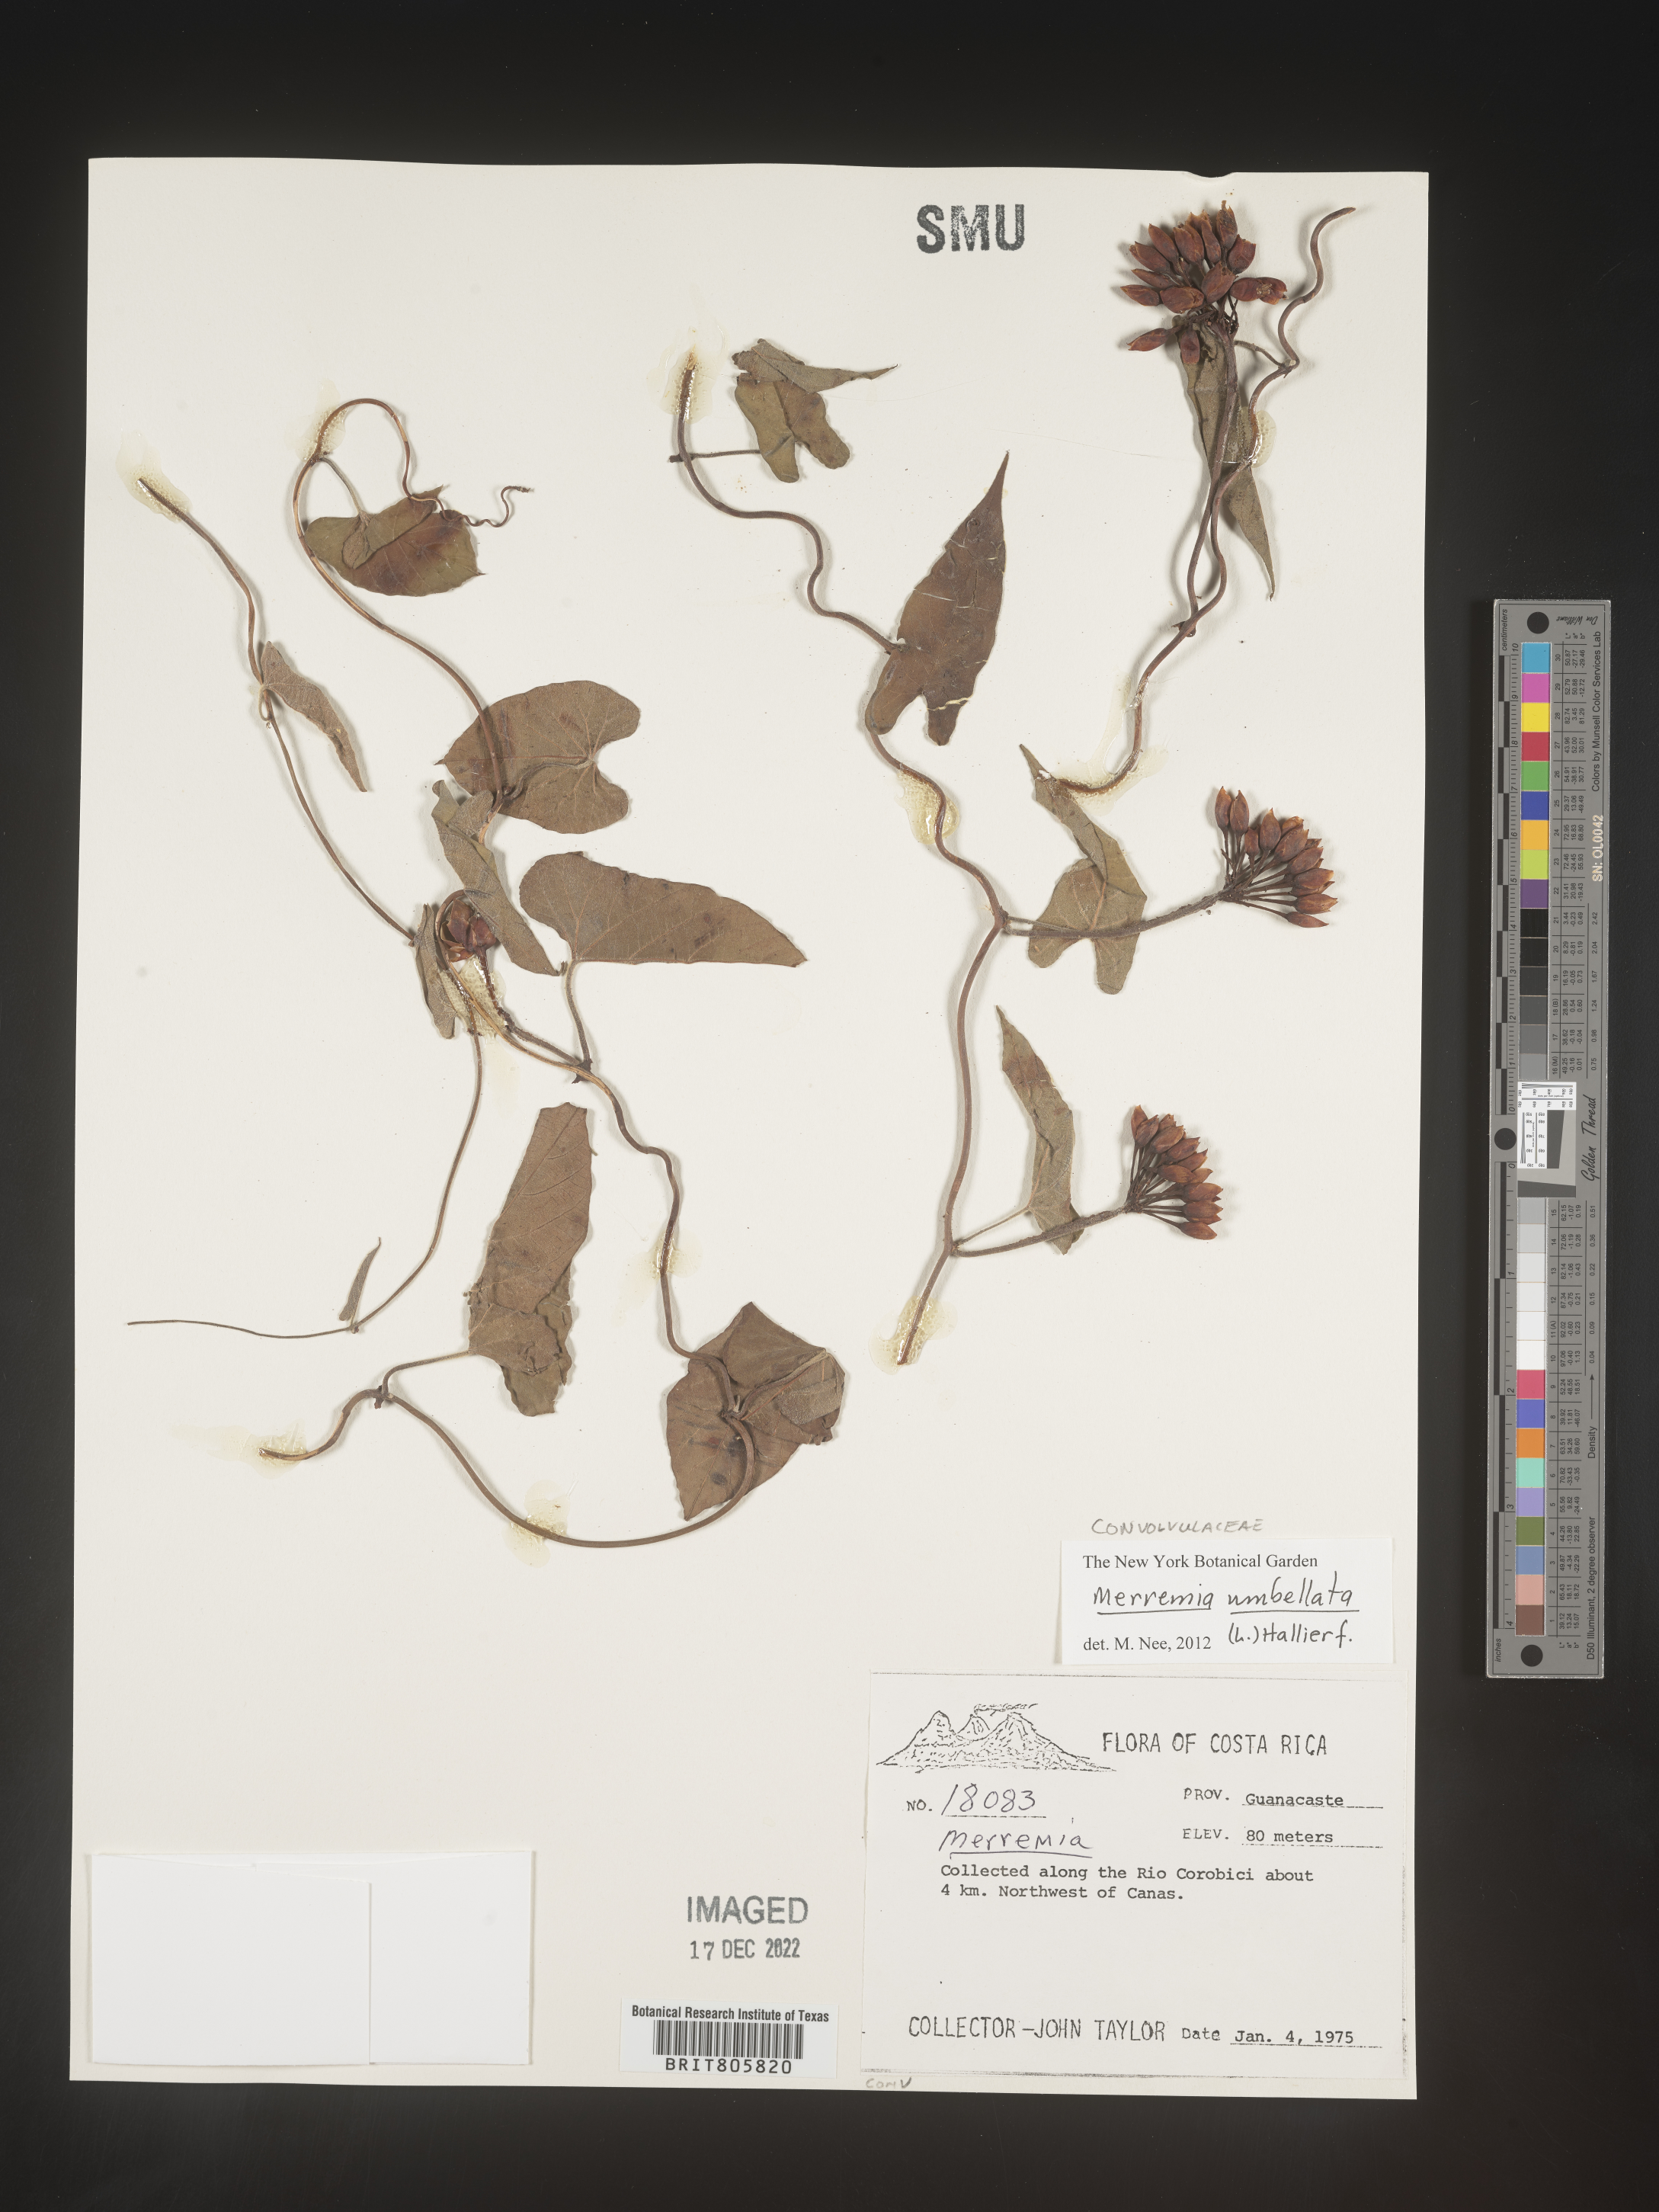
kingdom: Plantae
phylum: Tracheophyta
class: Magnoliopsida
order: Solanales
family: Convolvulaceae
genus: Merremia
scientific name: Merremia
